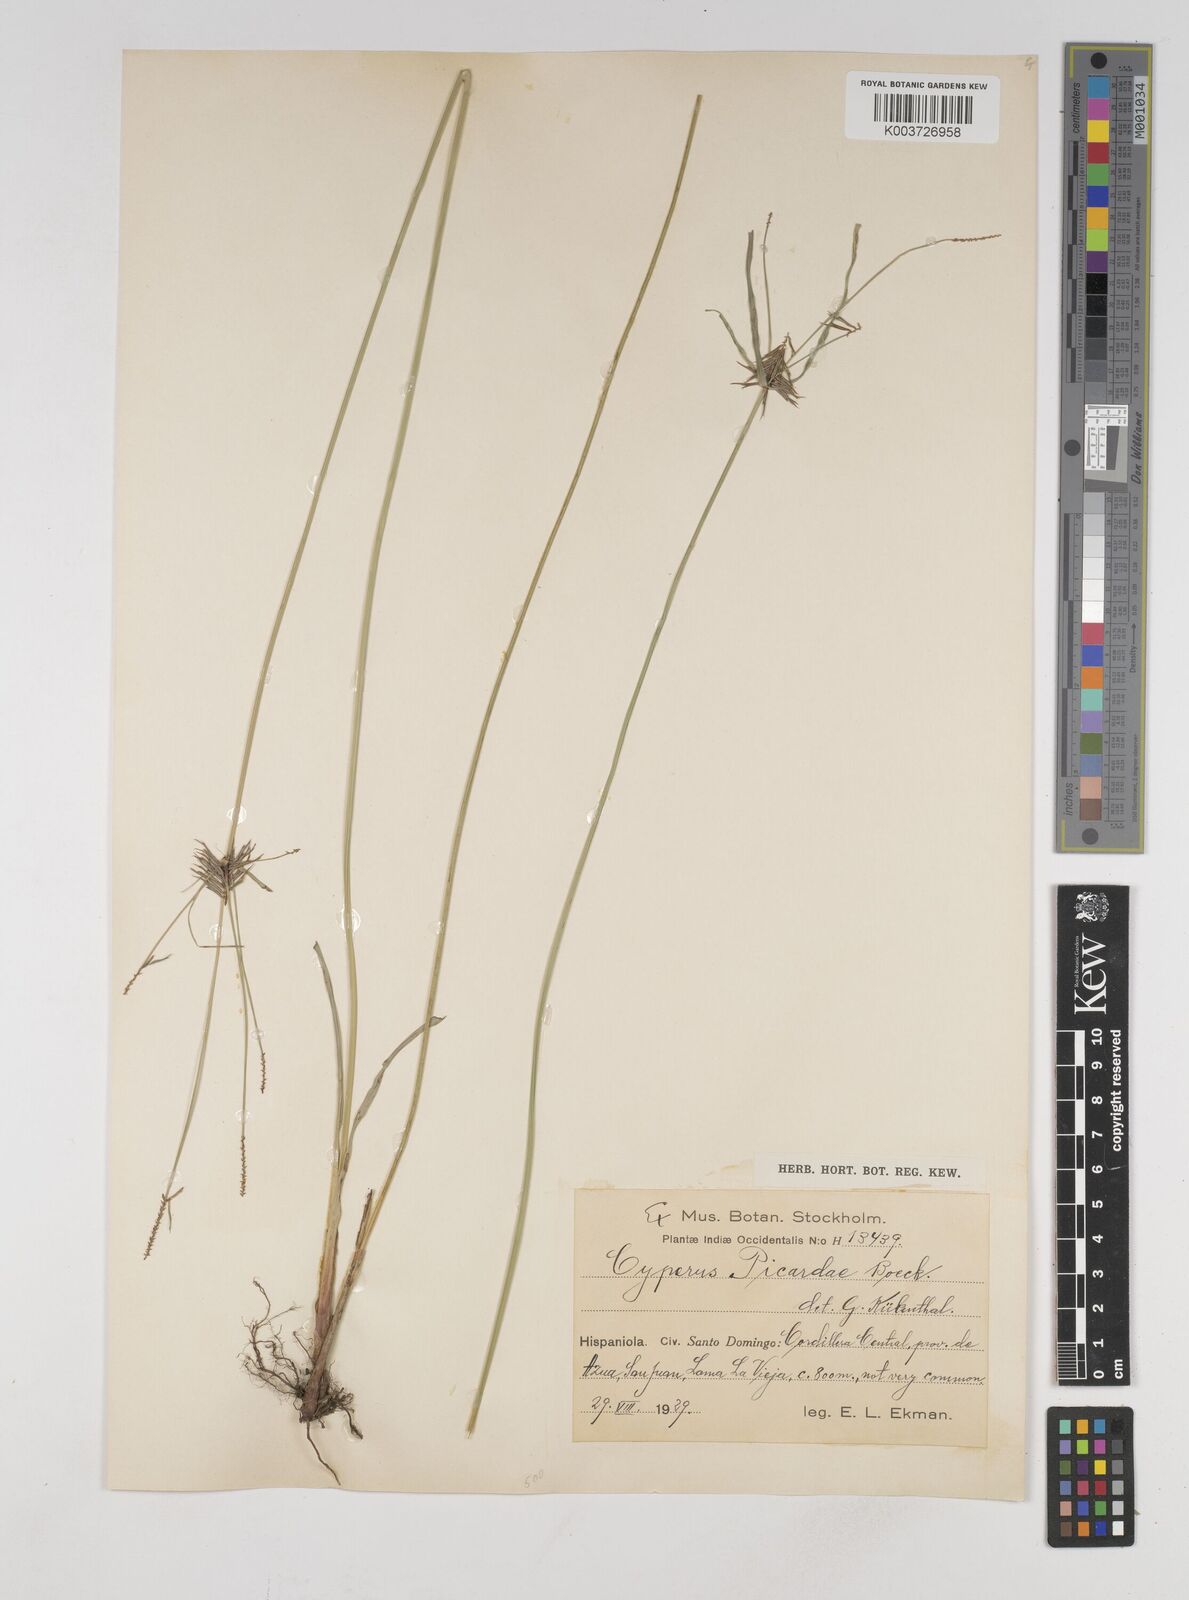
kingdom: Plantae
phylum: Tracheophyta
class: Liliopsida
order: Poales
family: Cyperaceae
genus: Cyperus
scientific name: Cyperus picardae
